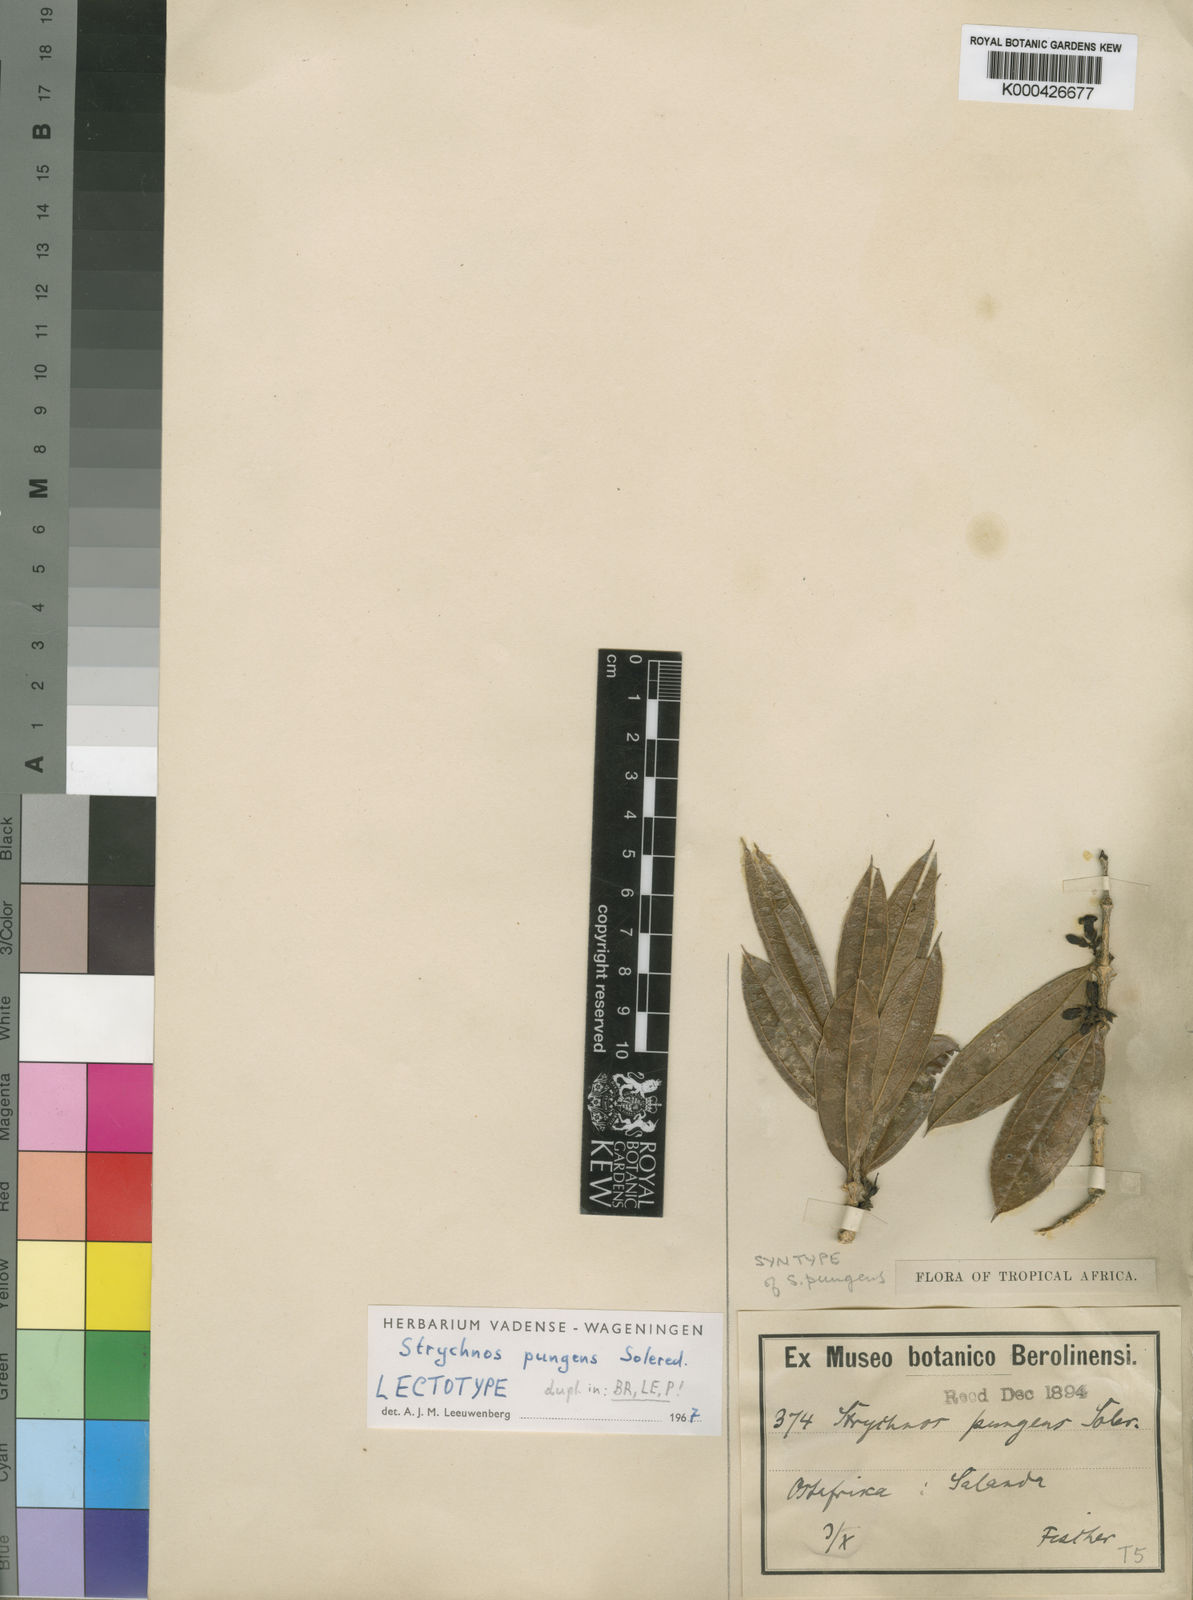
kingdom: Plantae
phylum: Tracheophyta
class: Magnoliopsida
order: Gentianales
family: Loganiaceae
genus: Strychnos
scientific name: Strychnos pungens
